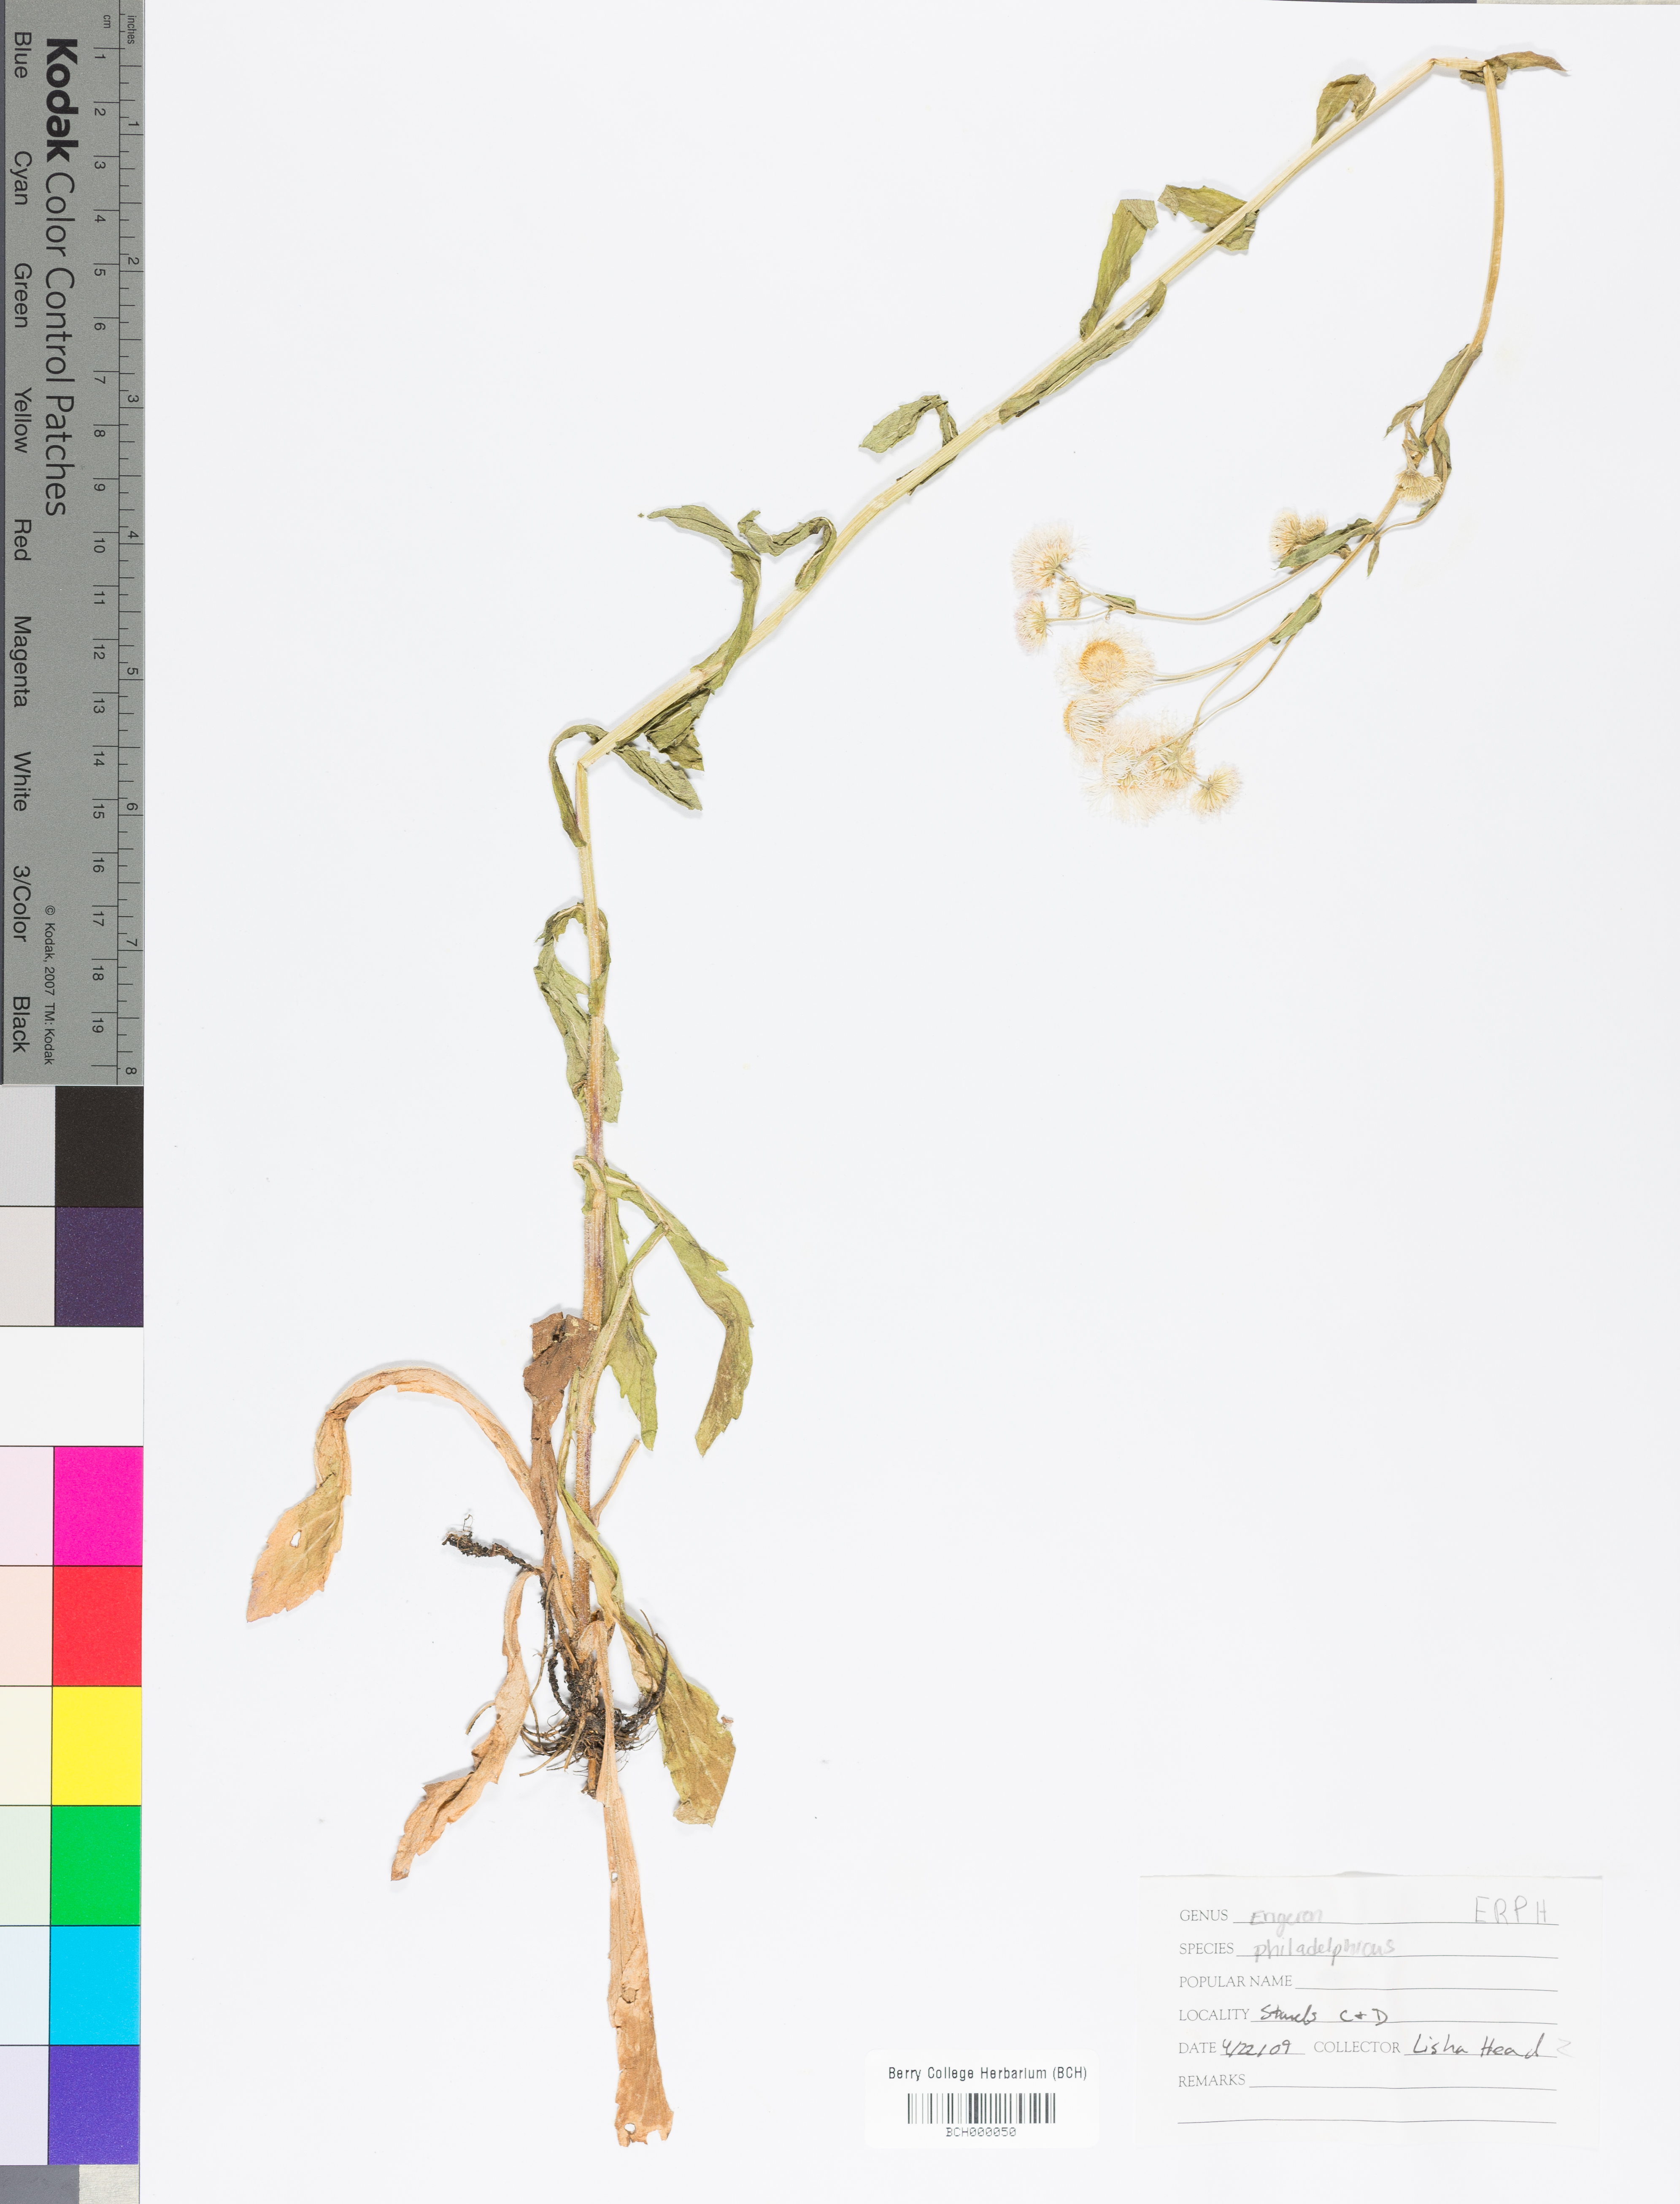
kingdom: Plantae
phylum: Tracheophyta
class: Magnoliopsida
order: Asterales
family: Asteraceae
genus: Erigeron
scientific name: Erigeron philadelphicus
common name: Robin's-plantain
